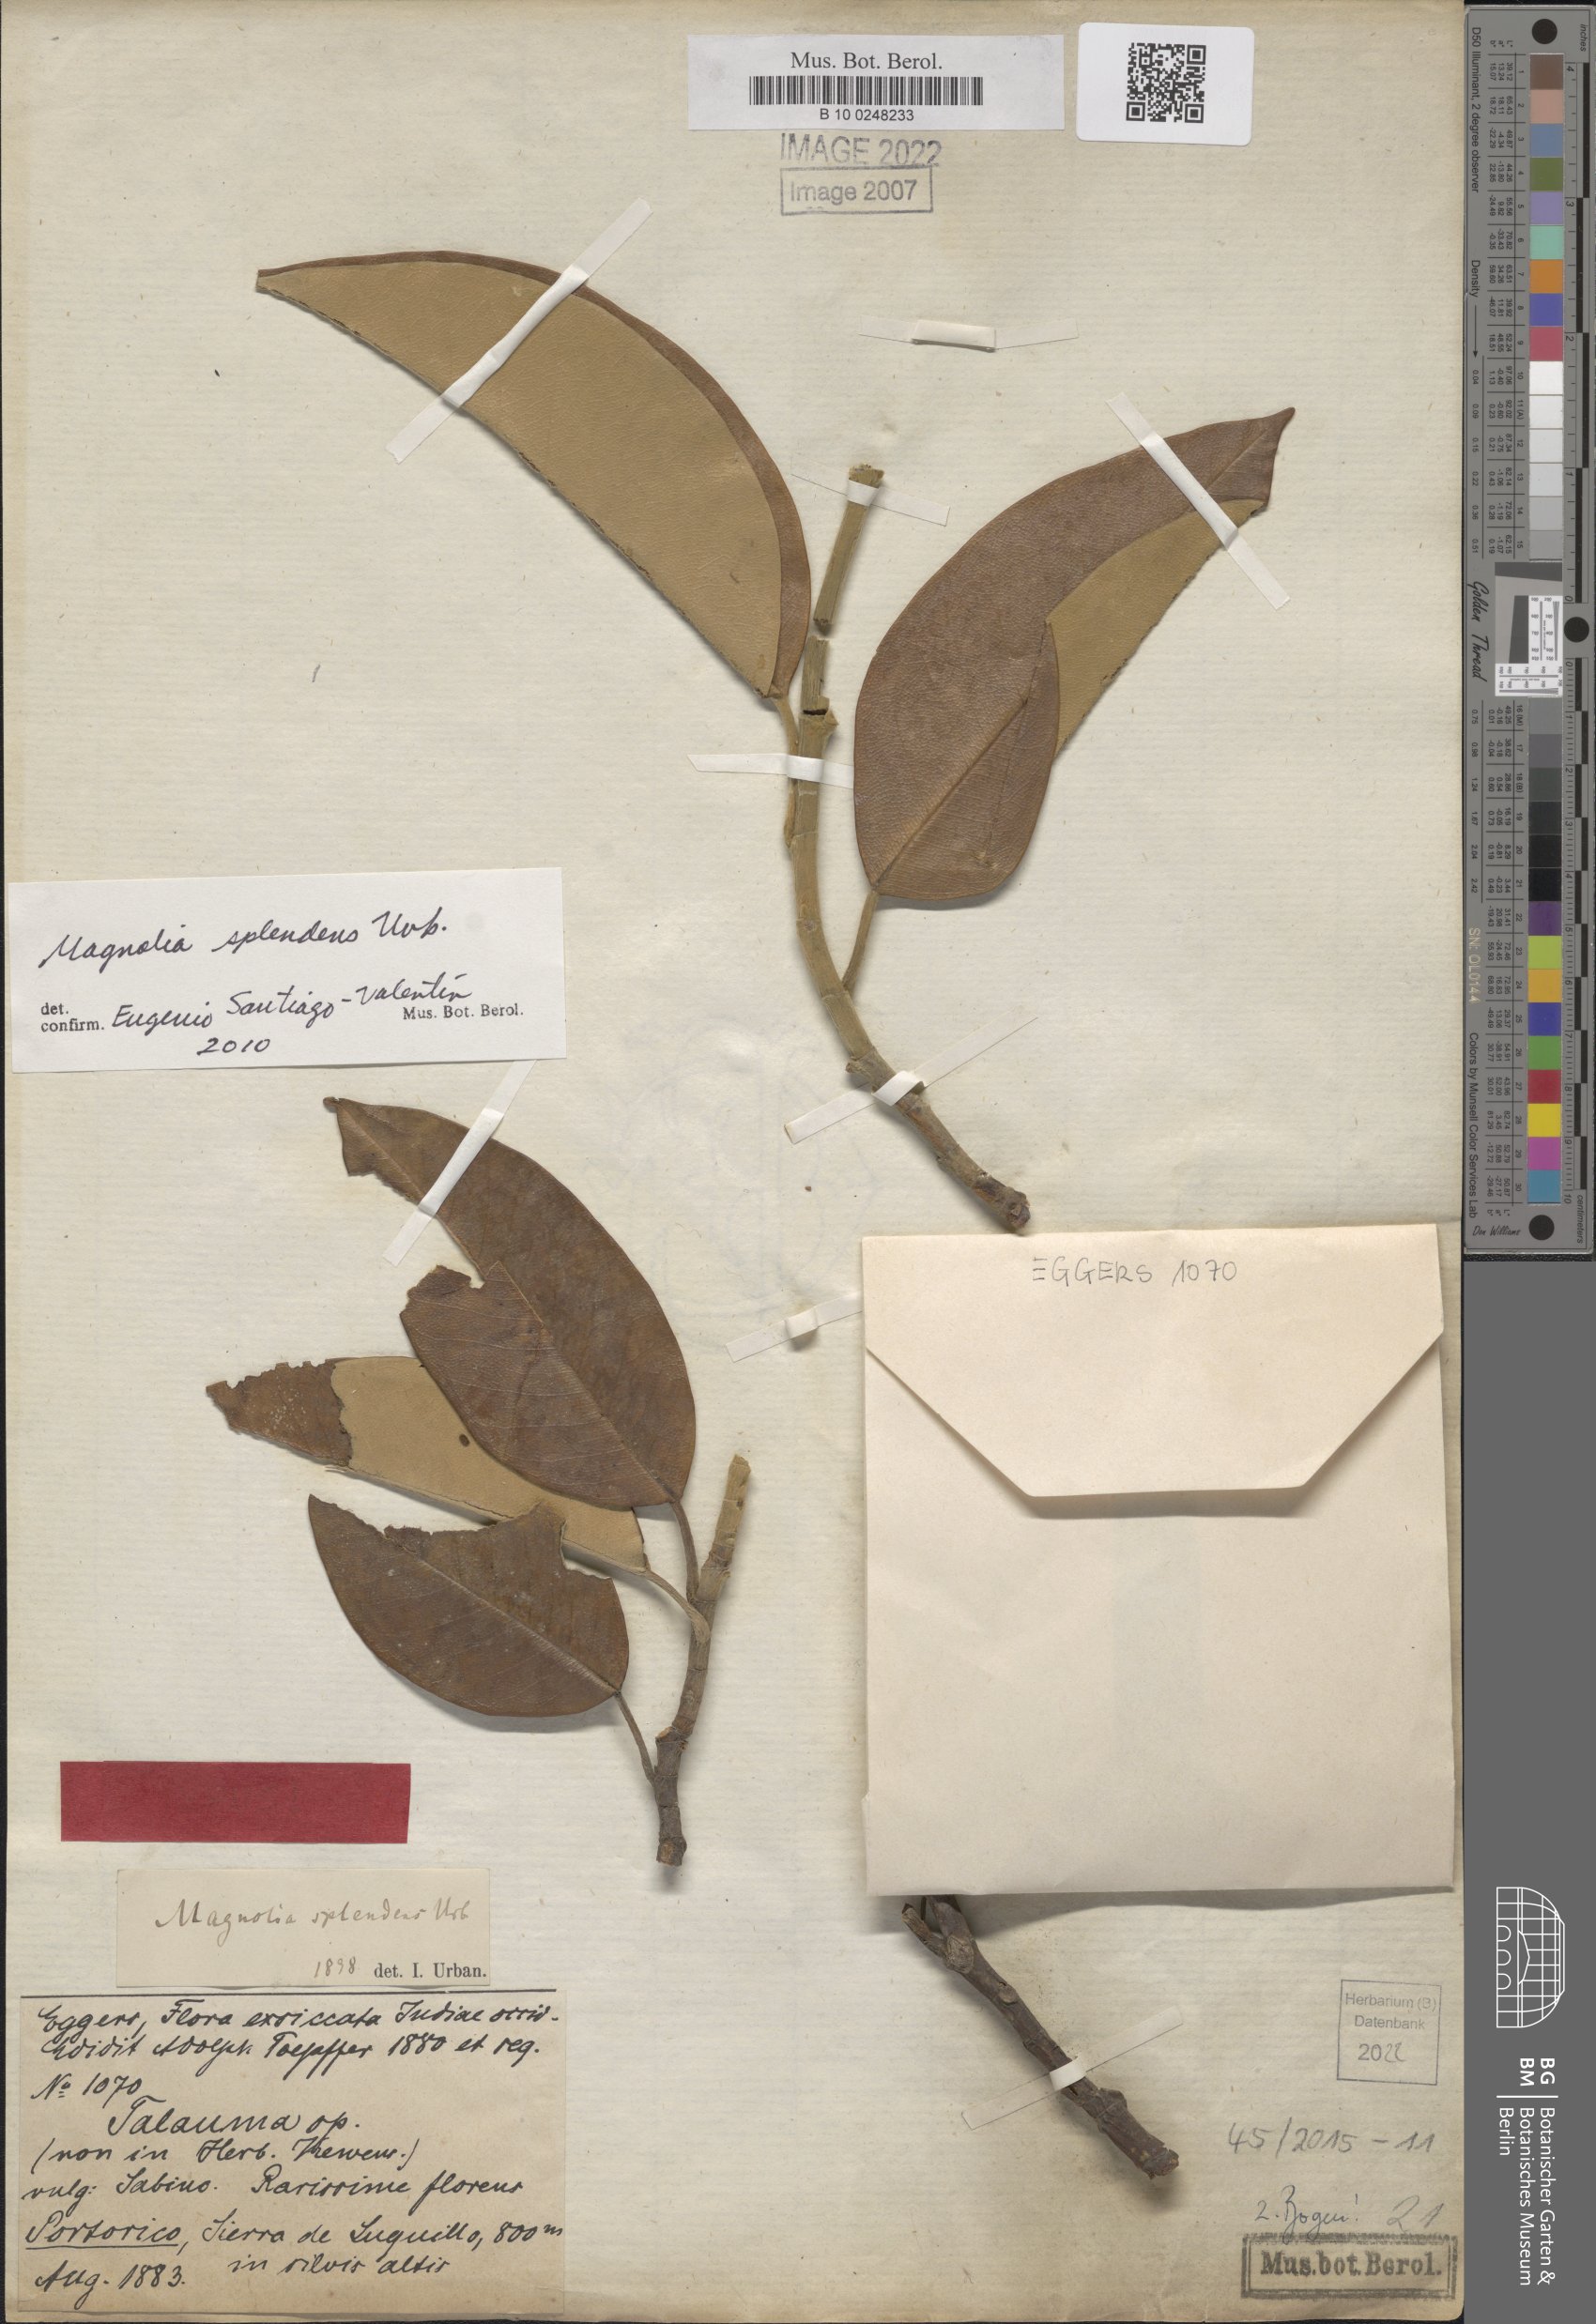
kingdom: Plantae
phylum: Tracheophyta
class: Magnoliopsida
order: Magnoliales
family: Magnoliaceae
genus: Magnolia
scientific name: Magnolia splendens
